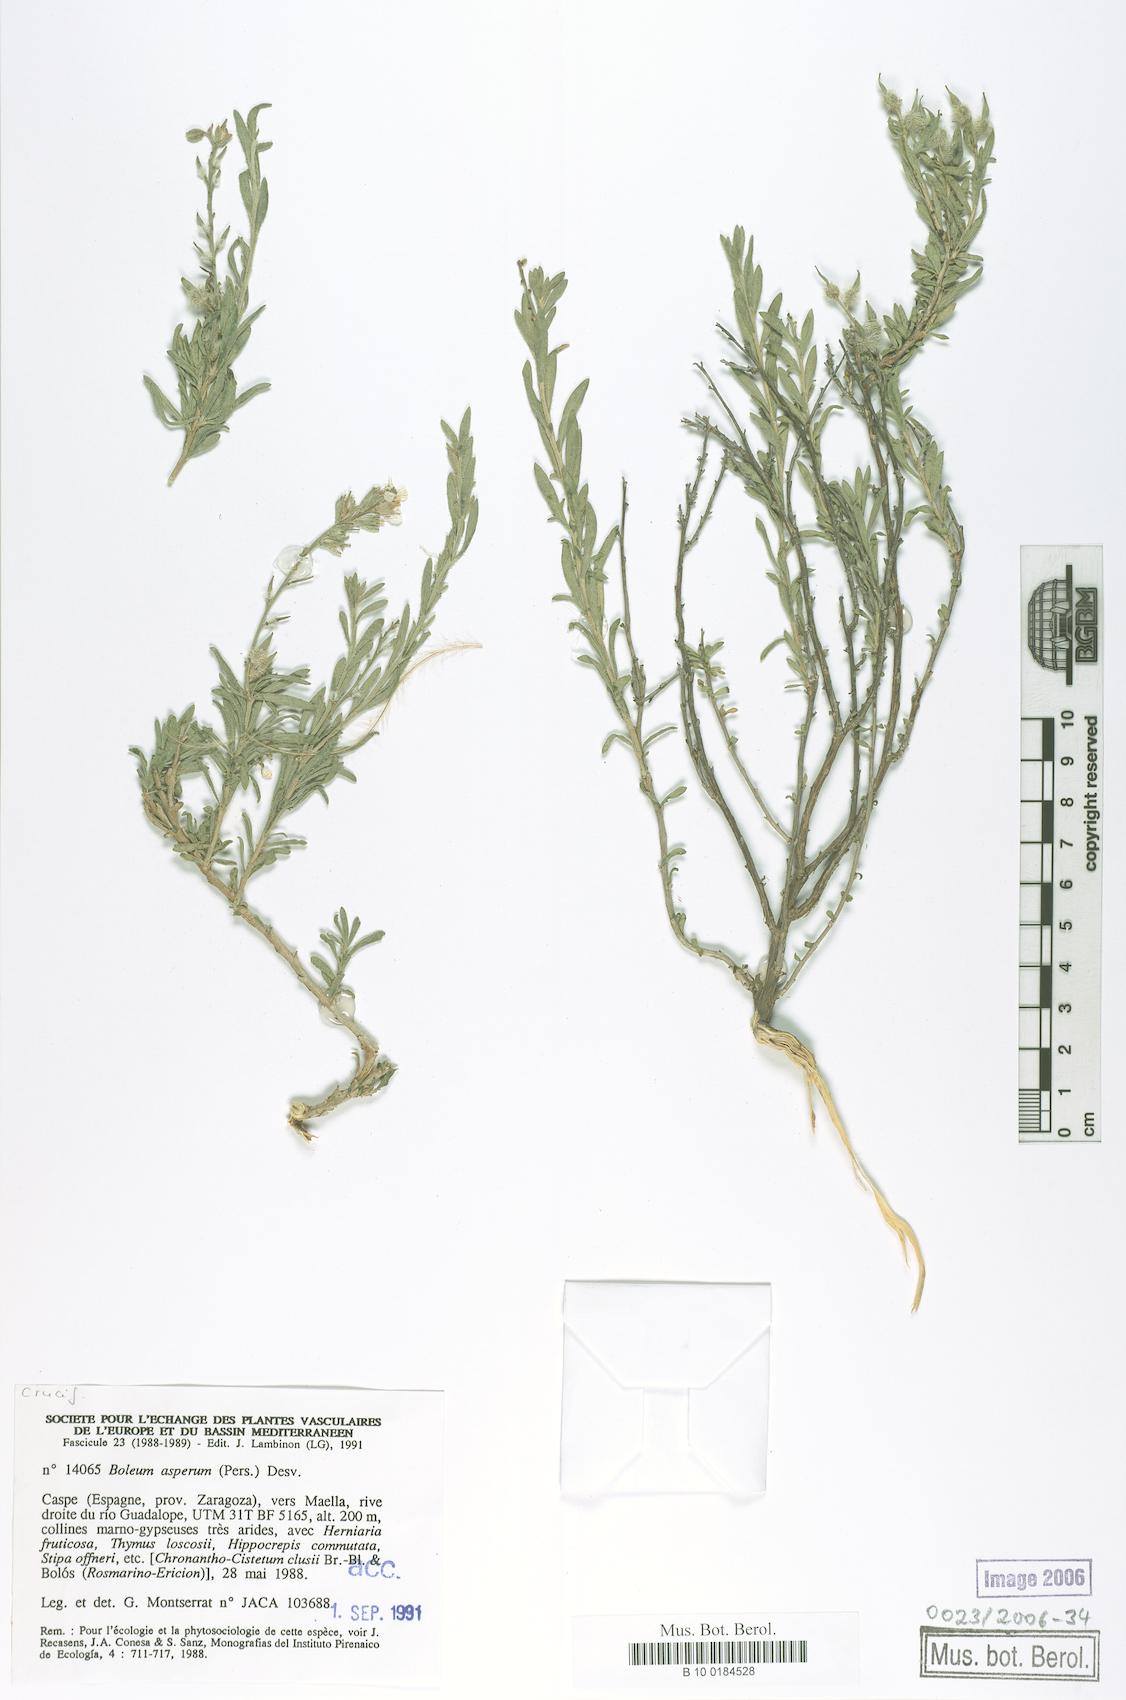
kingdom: Plantae
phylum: Tracheophyta
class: Magnoliopsida
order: Brassicales
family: Brassicaceae
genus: Vella
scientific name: Vella aspera
